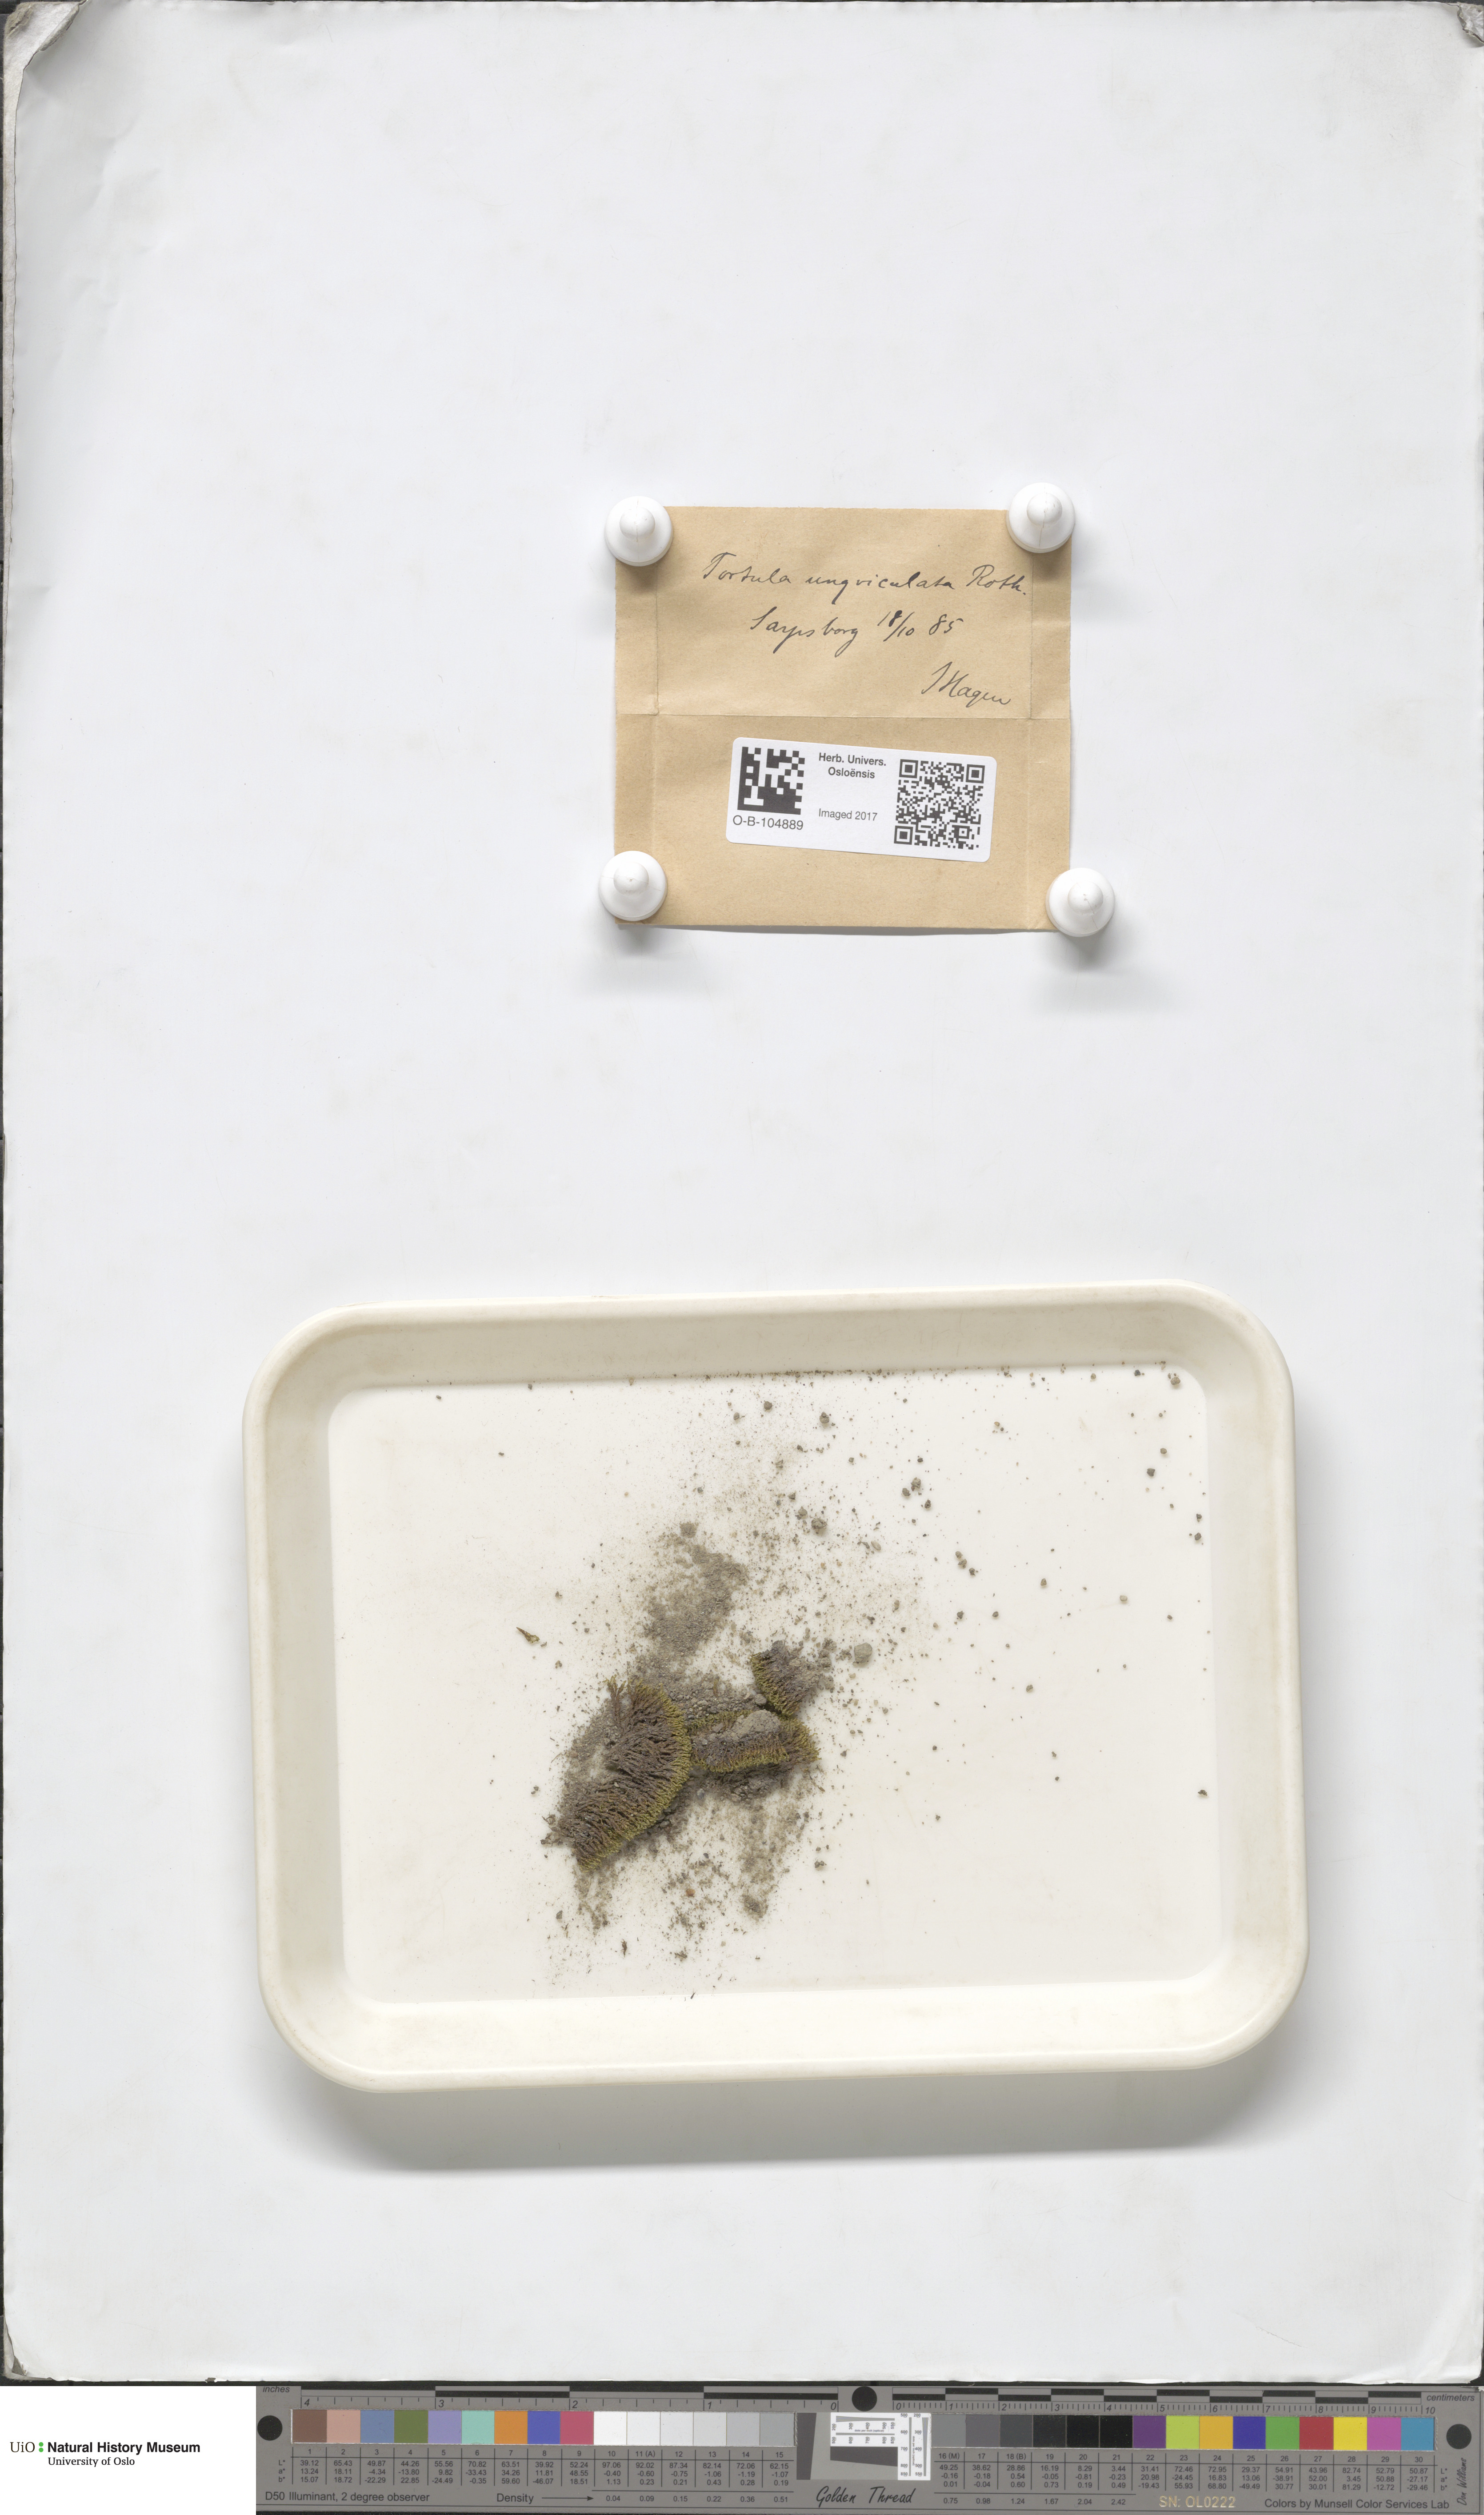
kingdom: Plantae
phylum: Bryophyta
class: Bryopsida
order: Pottiales
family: Pottiaceae
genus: Barbula
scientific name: Barbula unguiculata
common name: Prickly beard moss
